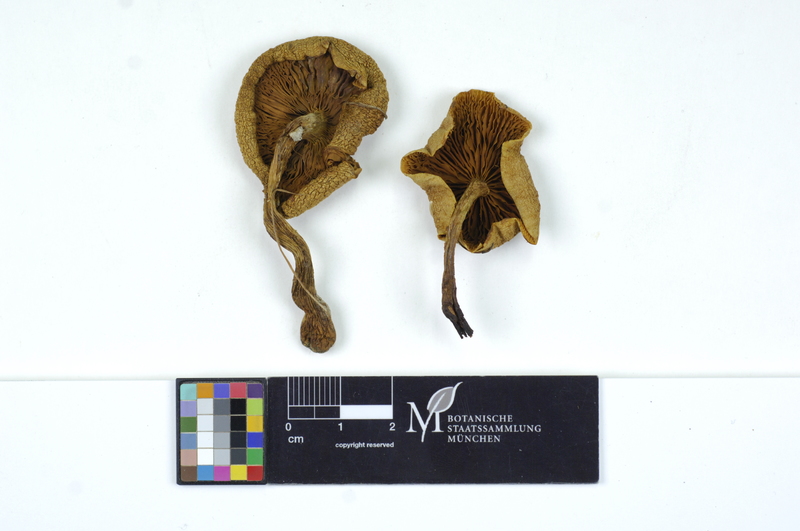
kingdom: Fungi
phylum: Basidiomycota
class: Agaricomycetes
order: Agaricales
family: Strophariaceae
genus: Pholiota
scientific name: Pholiota lubrica
